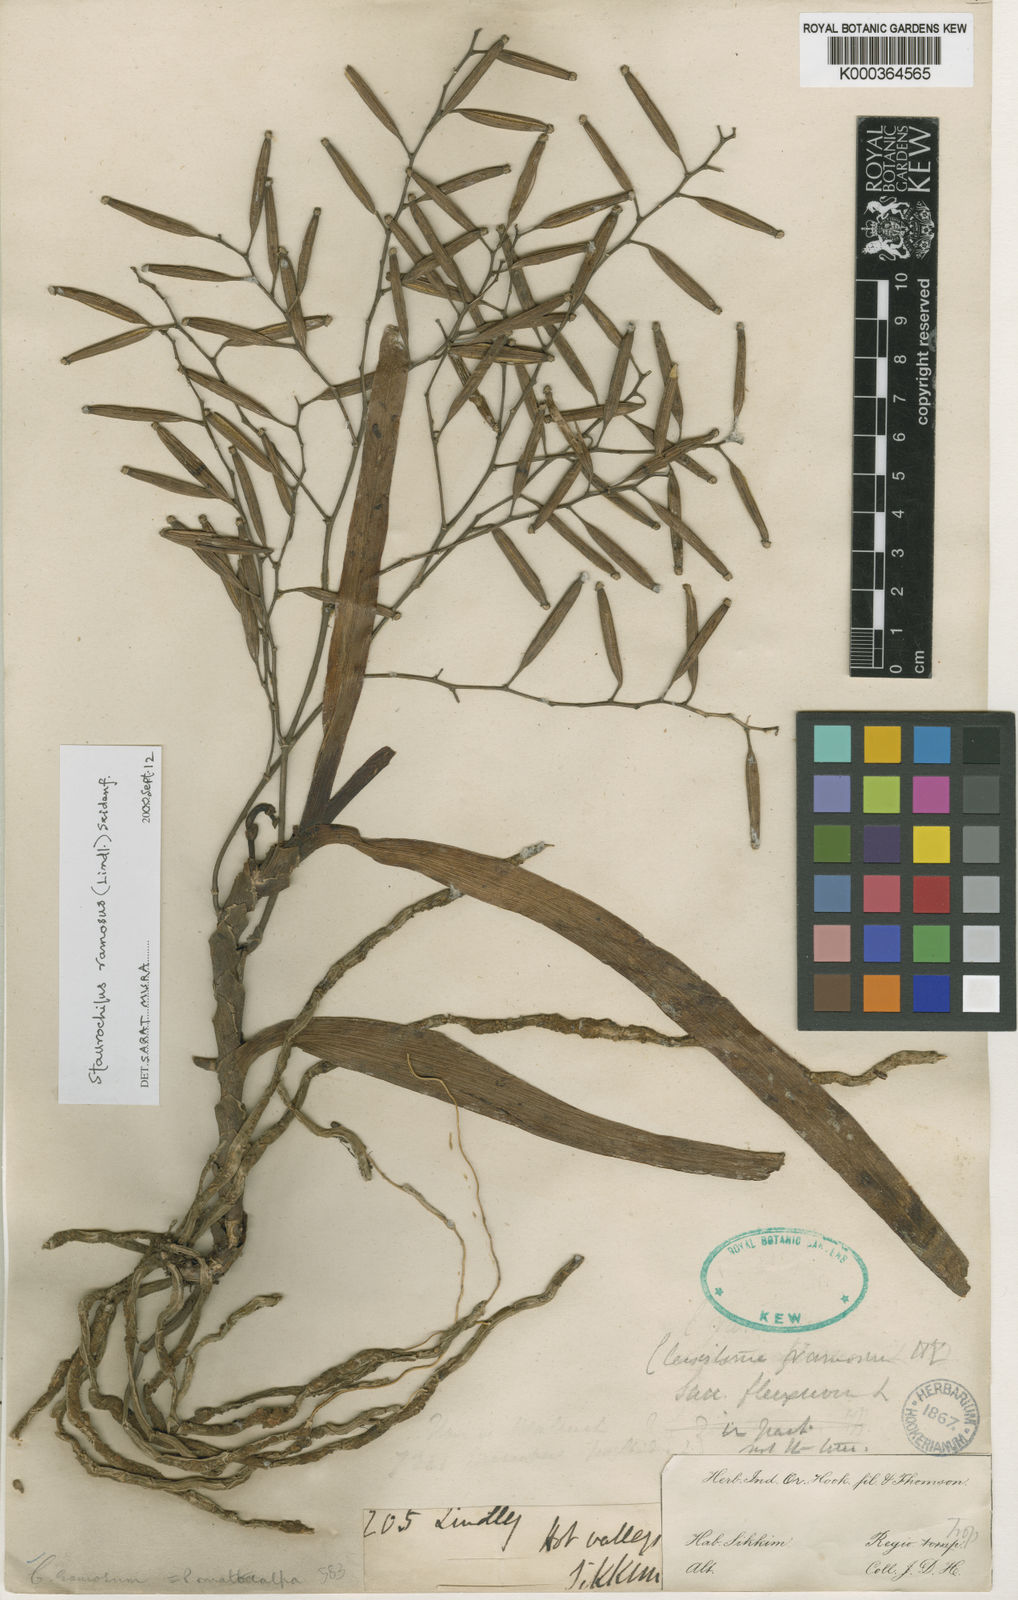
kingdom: Plantae
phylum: Tracheophyta
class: Liliopsida
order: Asparagales
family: Orchidaceae
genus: Trichoglottis
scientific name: Trichoglottis ramosa
